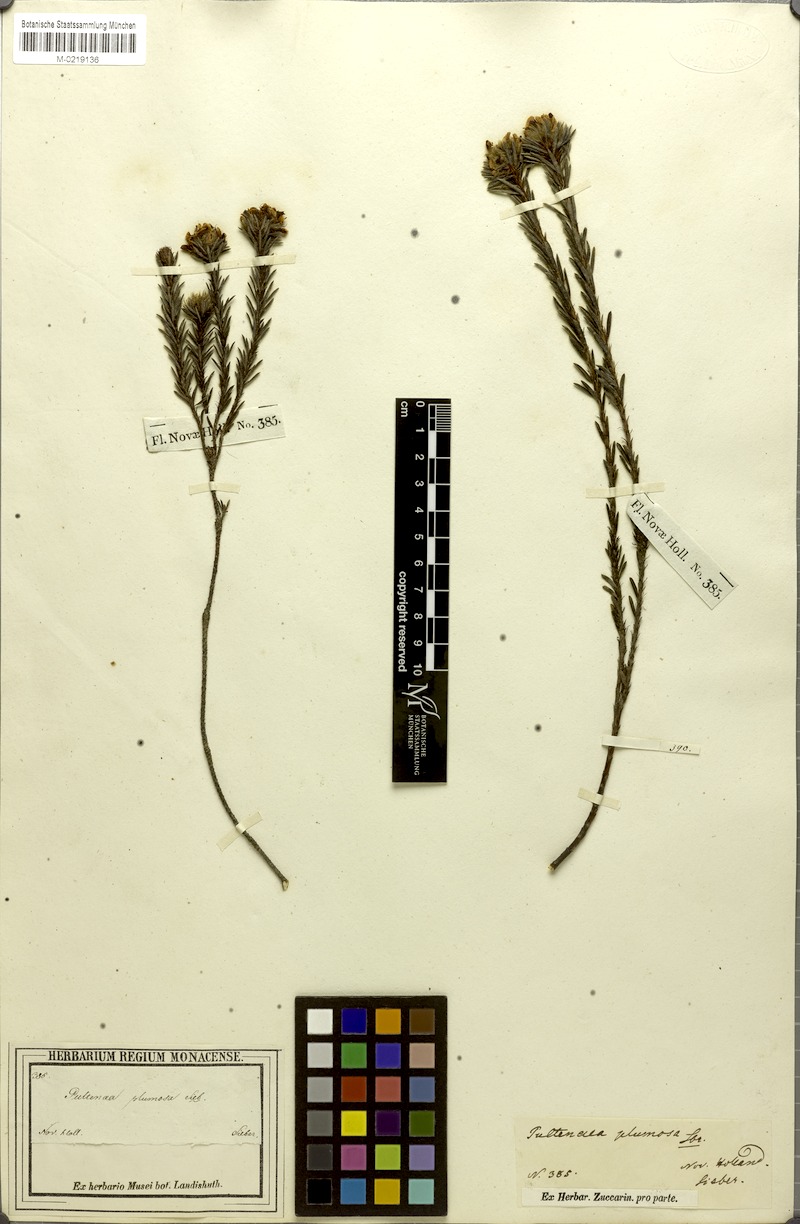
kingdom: Plantae
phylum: Tracheophyta
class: Magnoliopsida
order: Fabales
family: Fabaceae
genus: Pultenaea
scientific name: Pultenaea canescens
